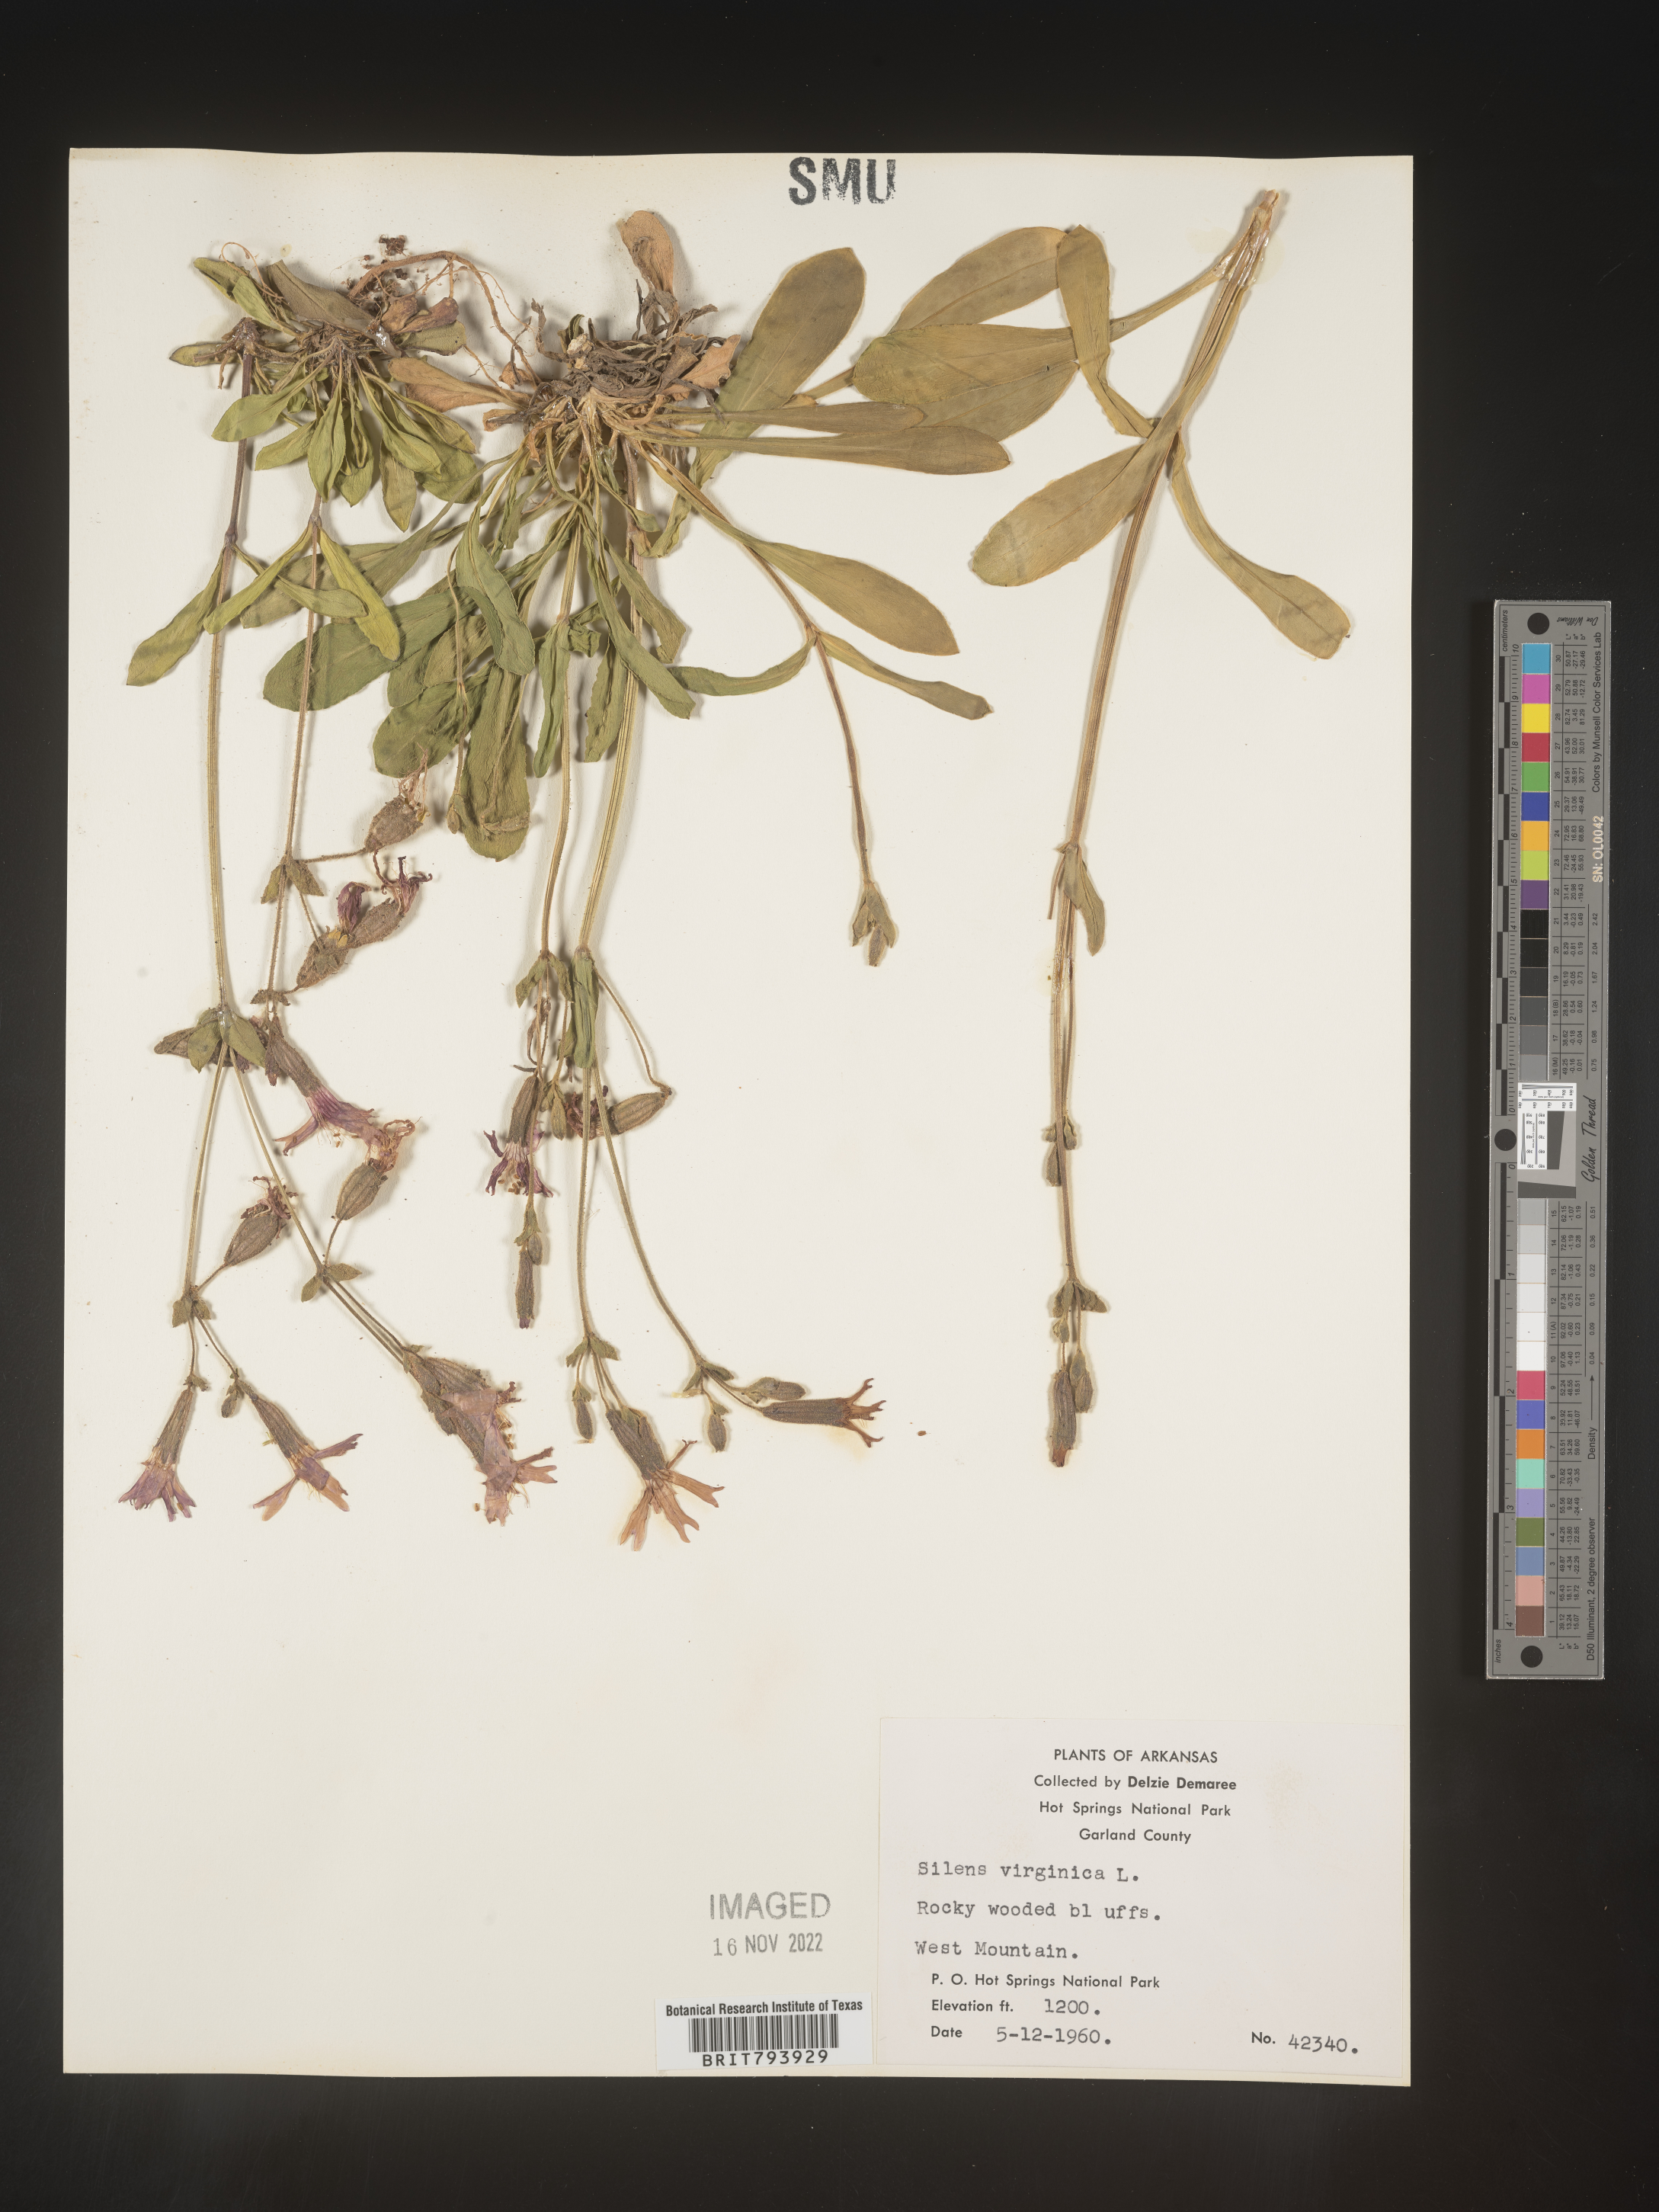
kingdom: Plantae
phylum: Tracheophyta
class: Magnoliopsida
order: Caryophyllales
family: Caryophyllaceae
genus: Silene
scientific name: Silene virginica
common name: Fire-pink
